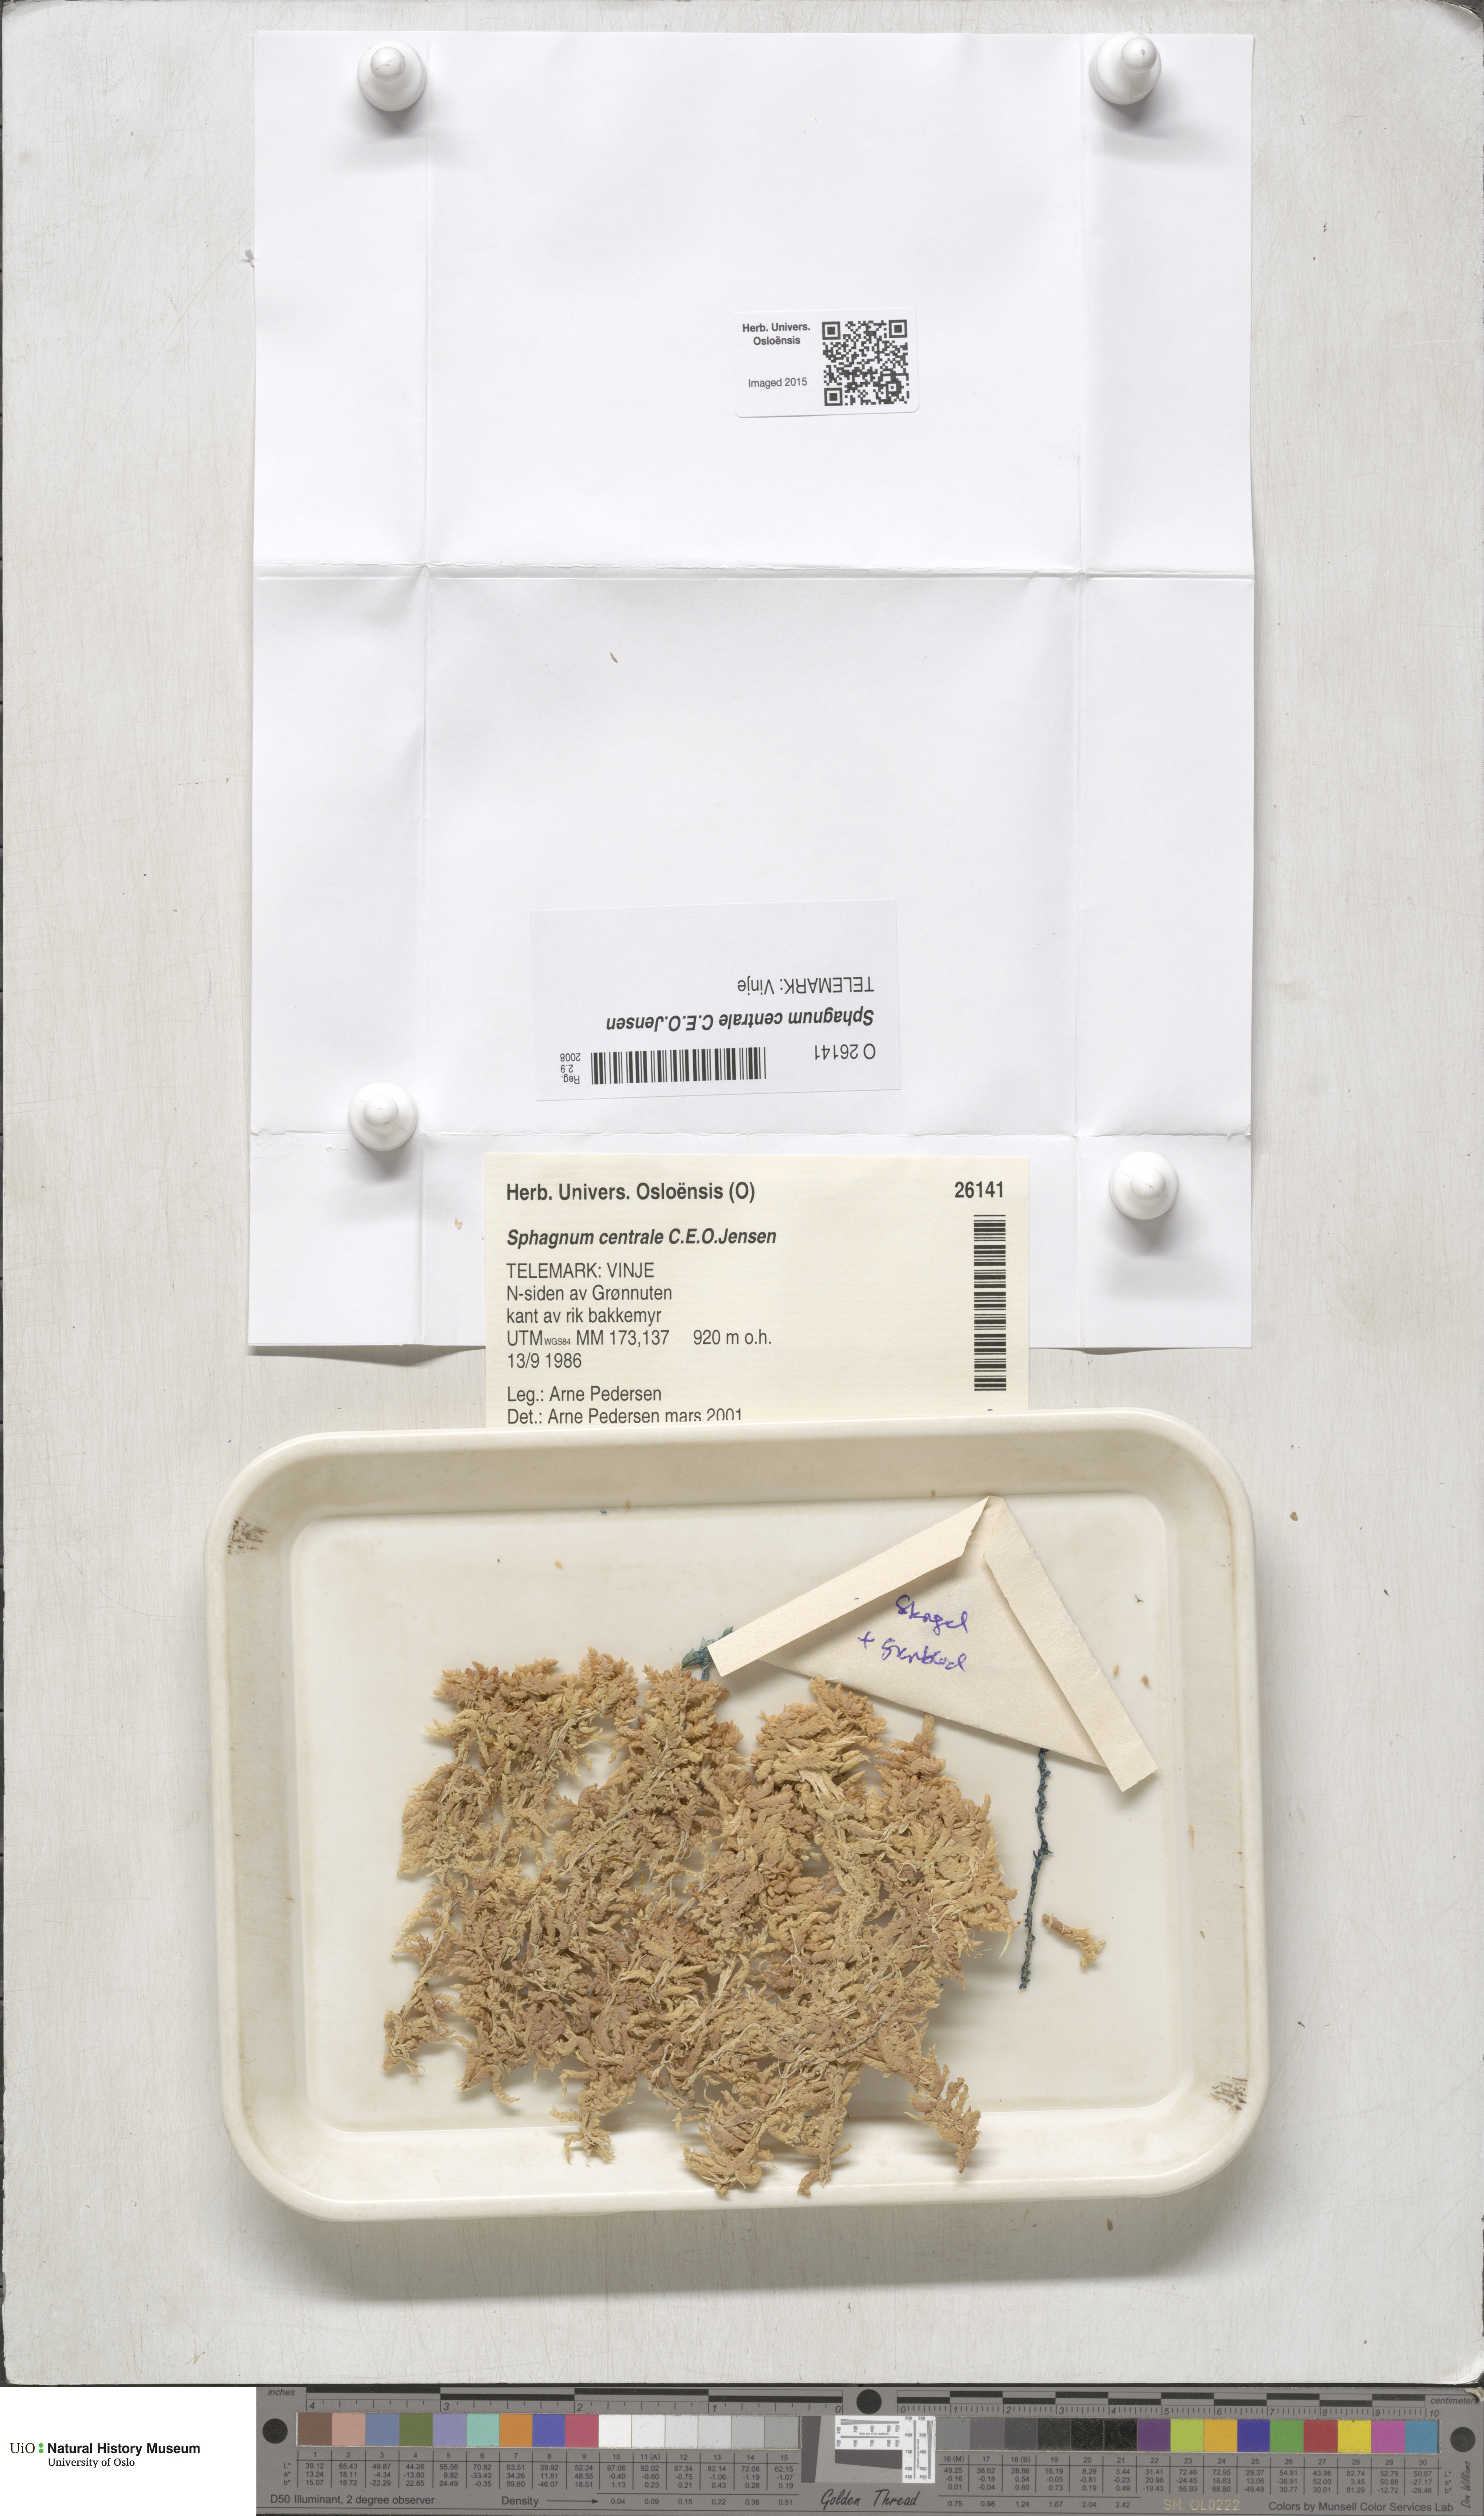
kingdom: Plantae
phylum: Bryophyta
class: Sphagnopsida
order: Sphagnales
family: Sphagnaceae
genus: Sphagnum
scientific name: Sphagnum centrale
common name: Central peat moss
